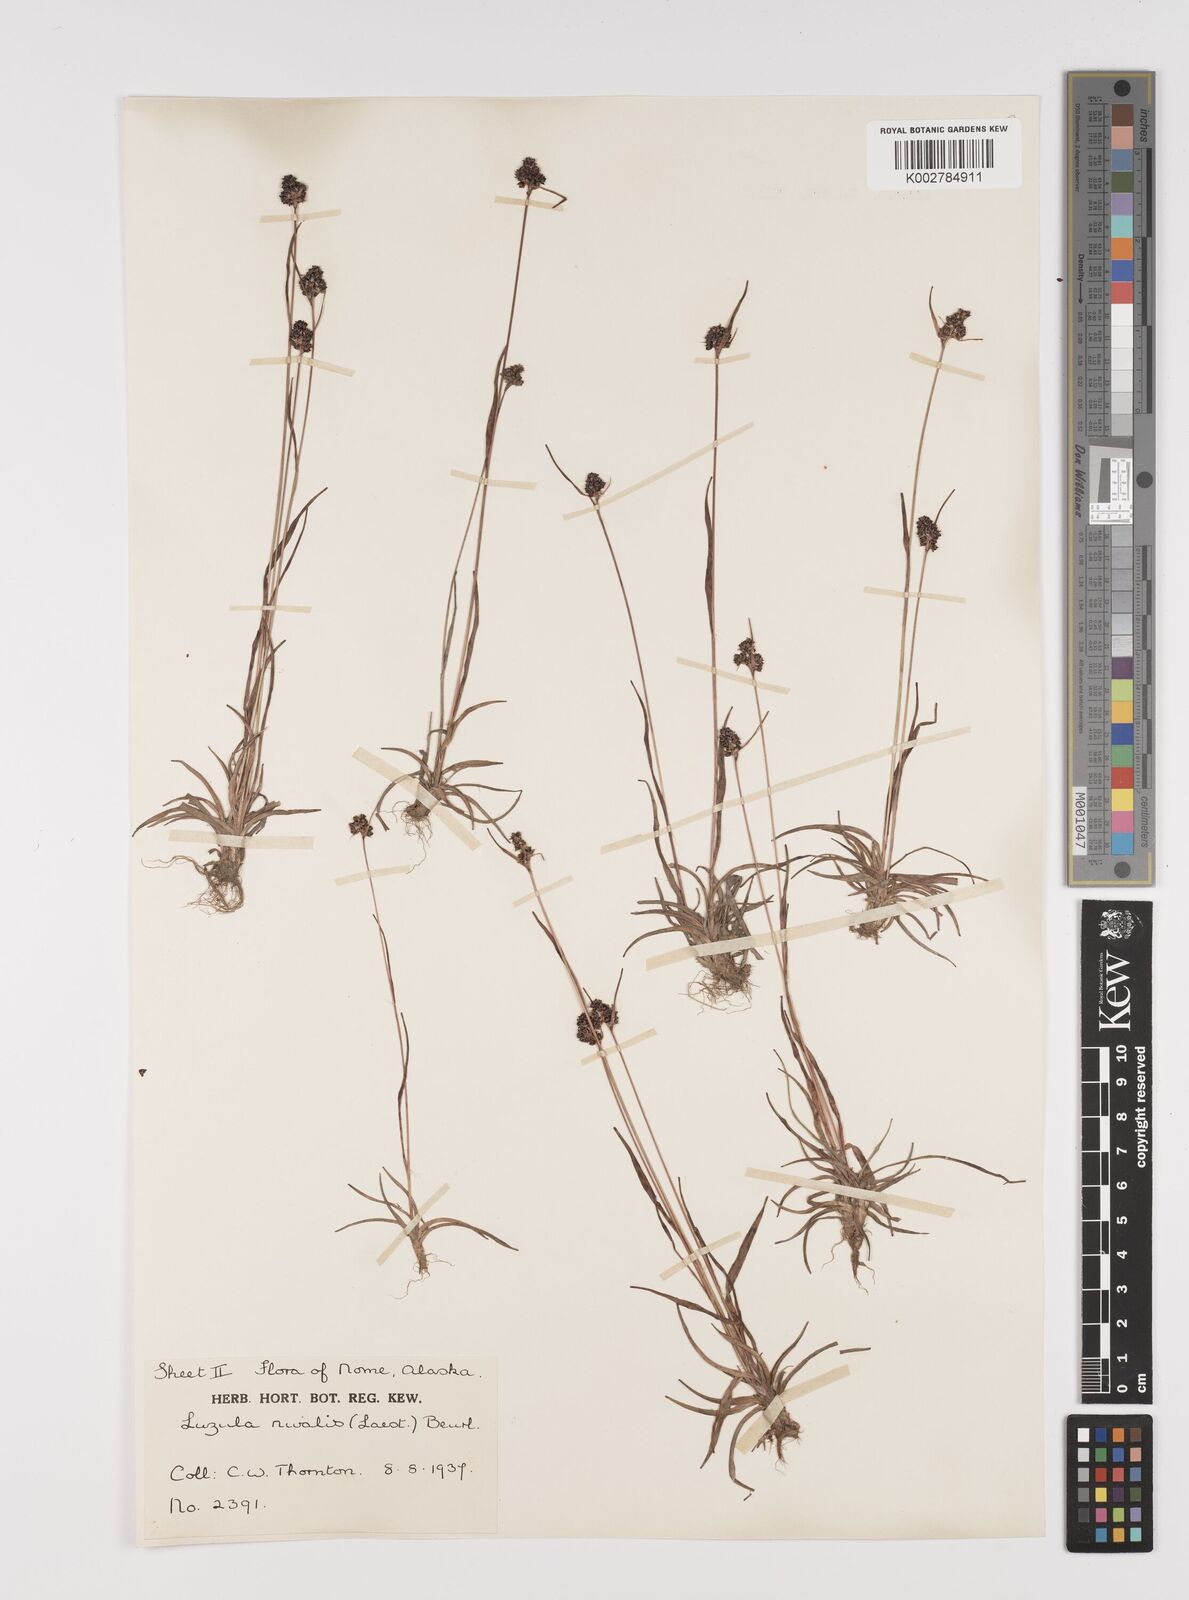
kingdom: Plantae
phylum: Tracheophyta
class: Liliopsida
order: Poales
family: Juncaceae
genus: Luzula
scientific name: Luzula nivalis
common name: Arctic woodrush
